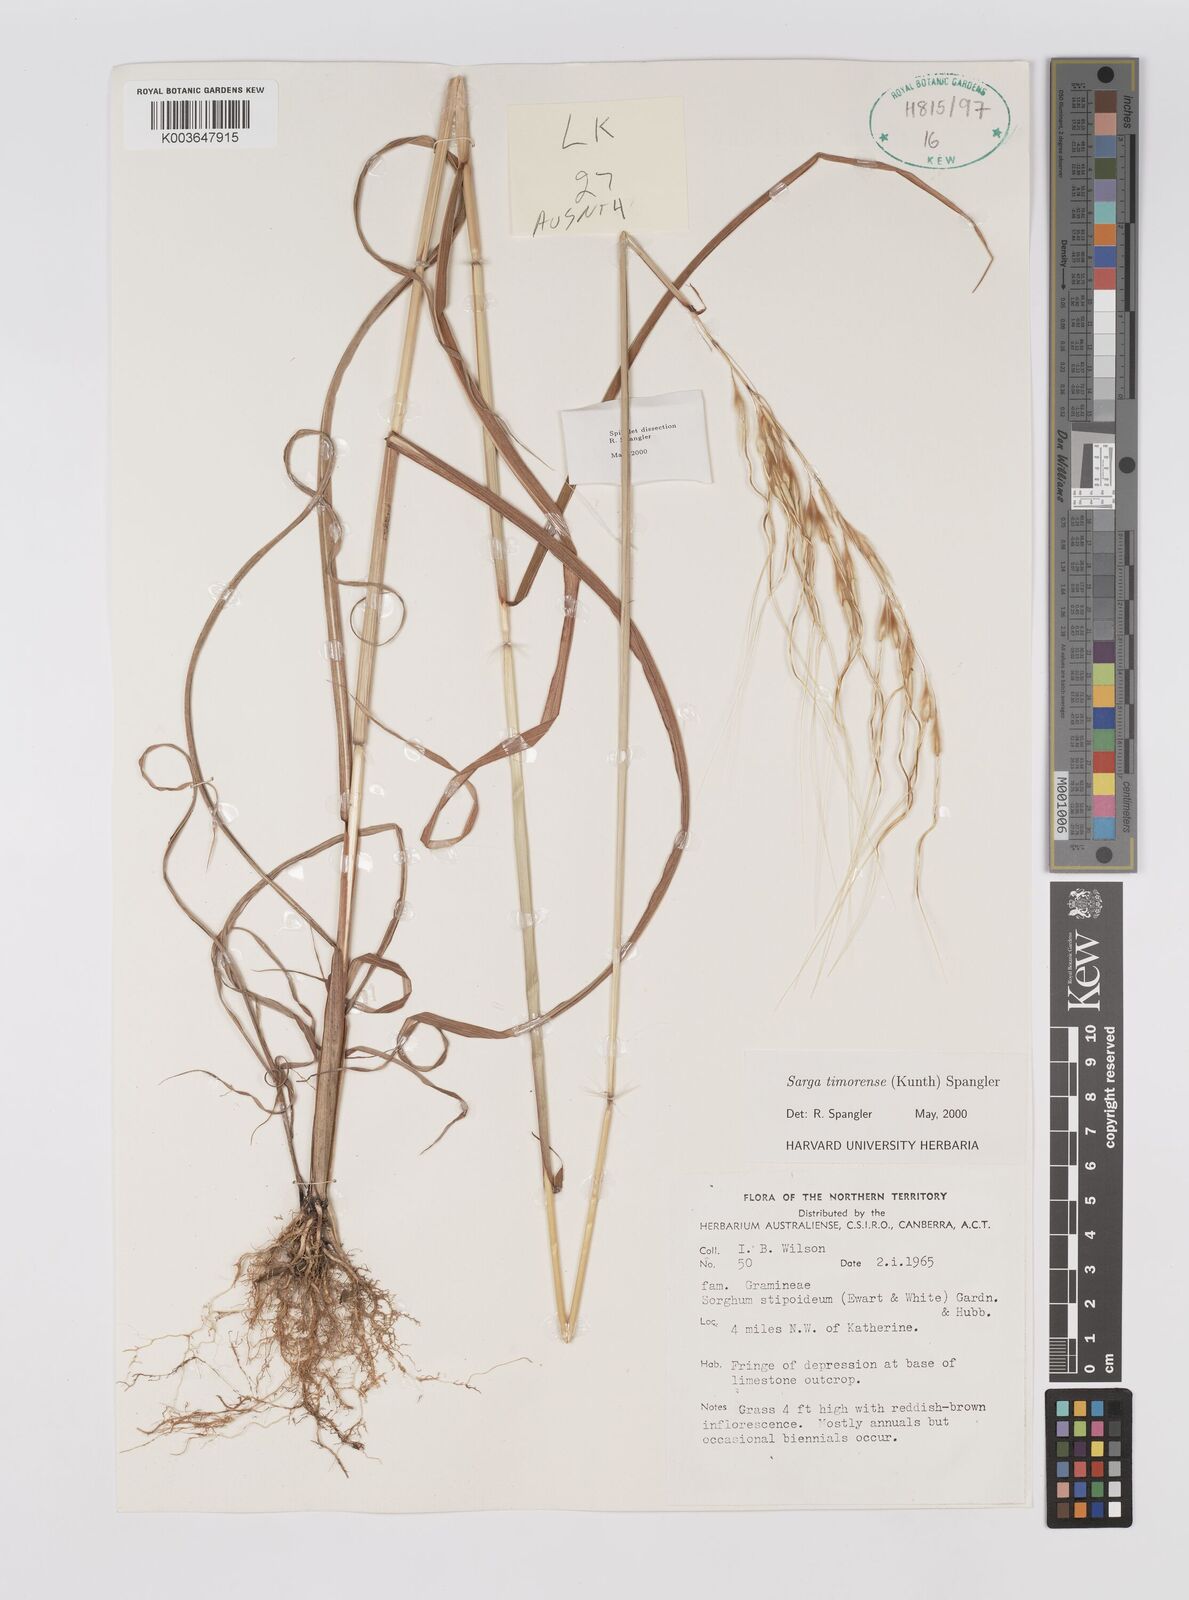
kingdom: Plantae
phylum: Tracheophyta
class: Liliopsida
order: Poales
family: Poaceae
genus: Sarga
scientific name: Sarga timorensis
